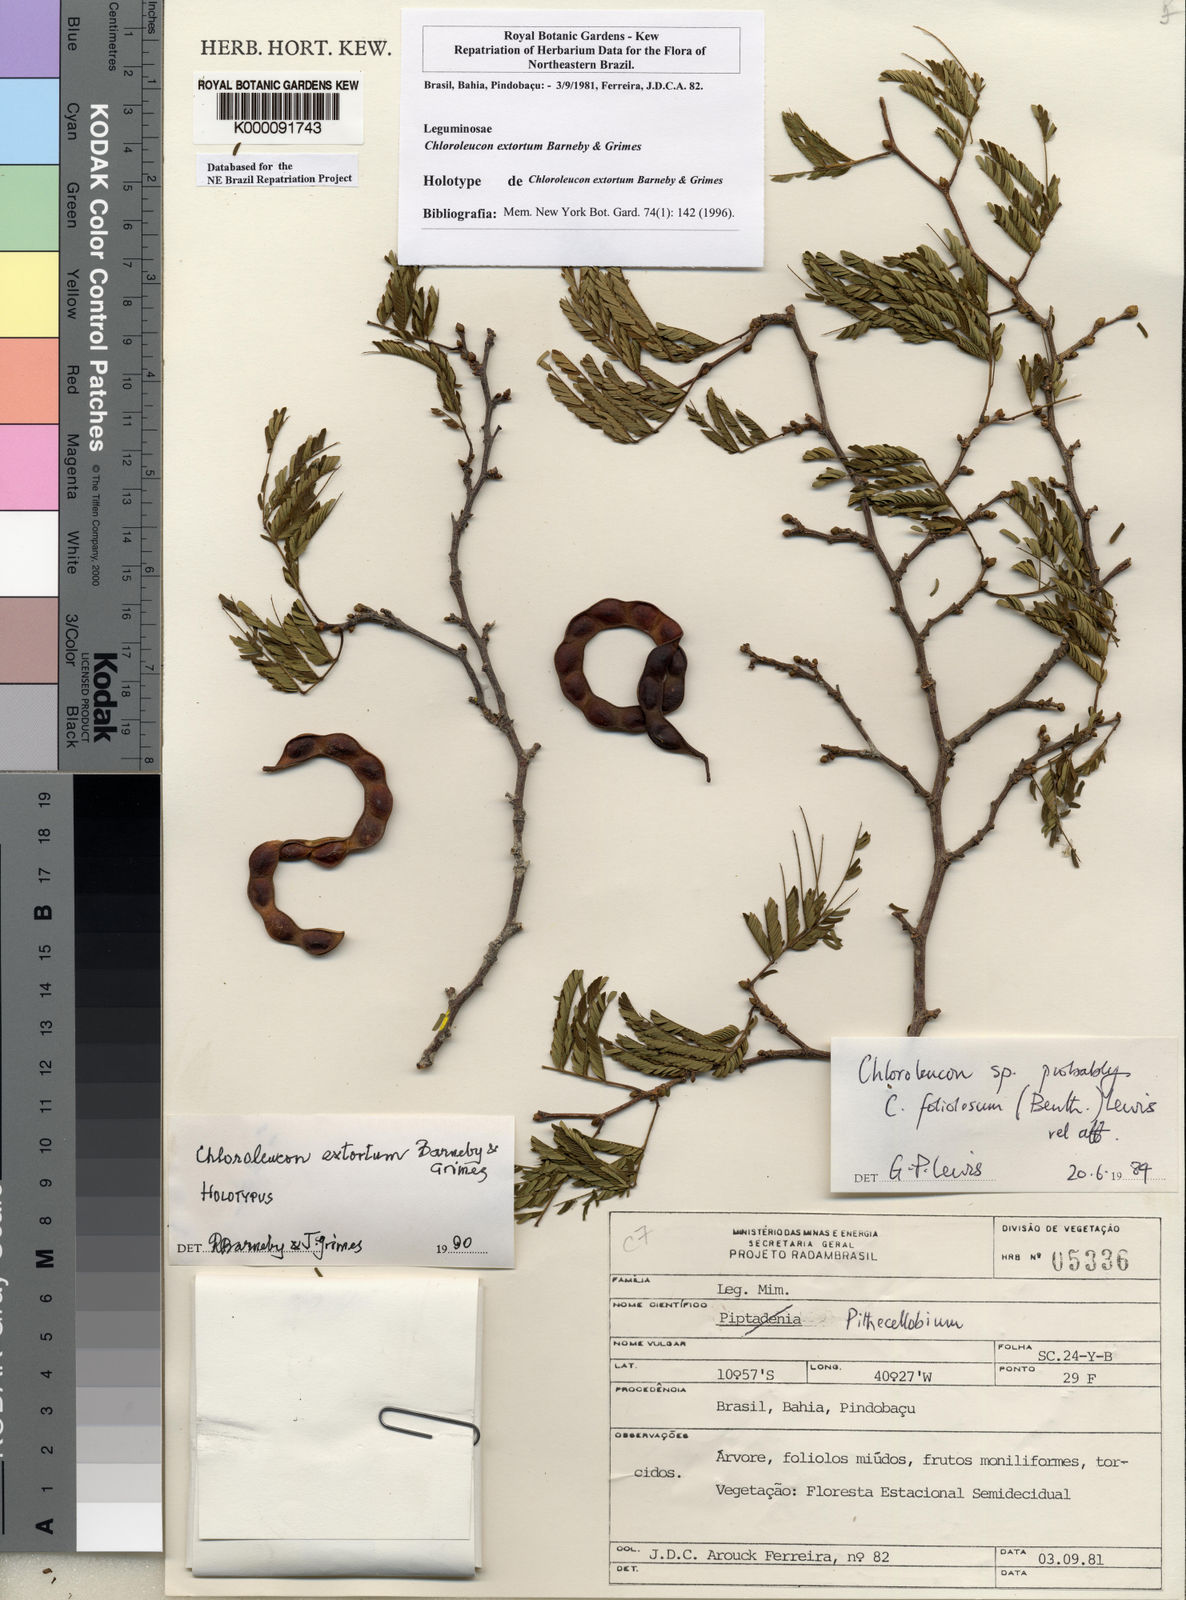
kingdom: Plantae
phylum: Tracheophyta
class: Magnoliopsida
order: Fabales
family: Fabaceae
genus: Chloroleucon
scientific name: Chloroleucon extortum
